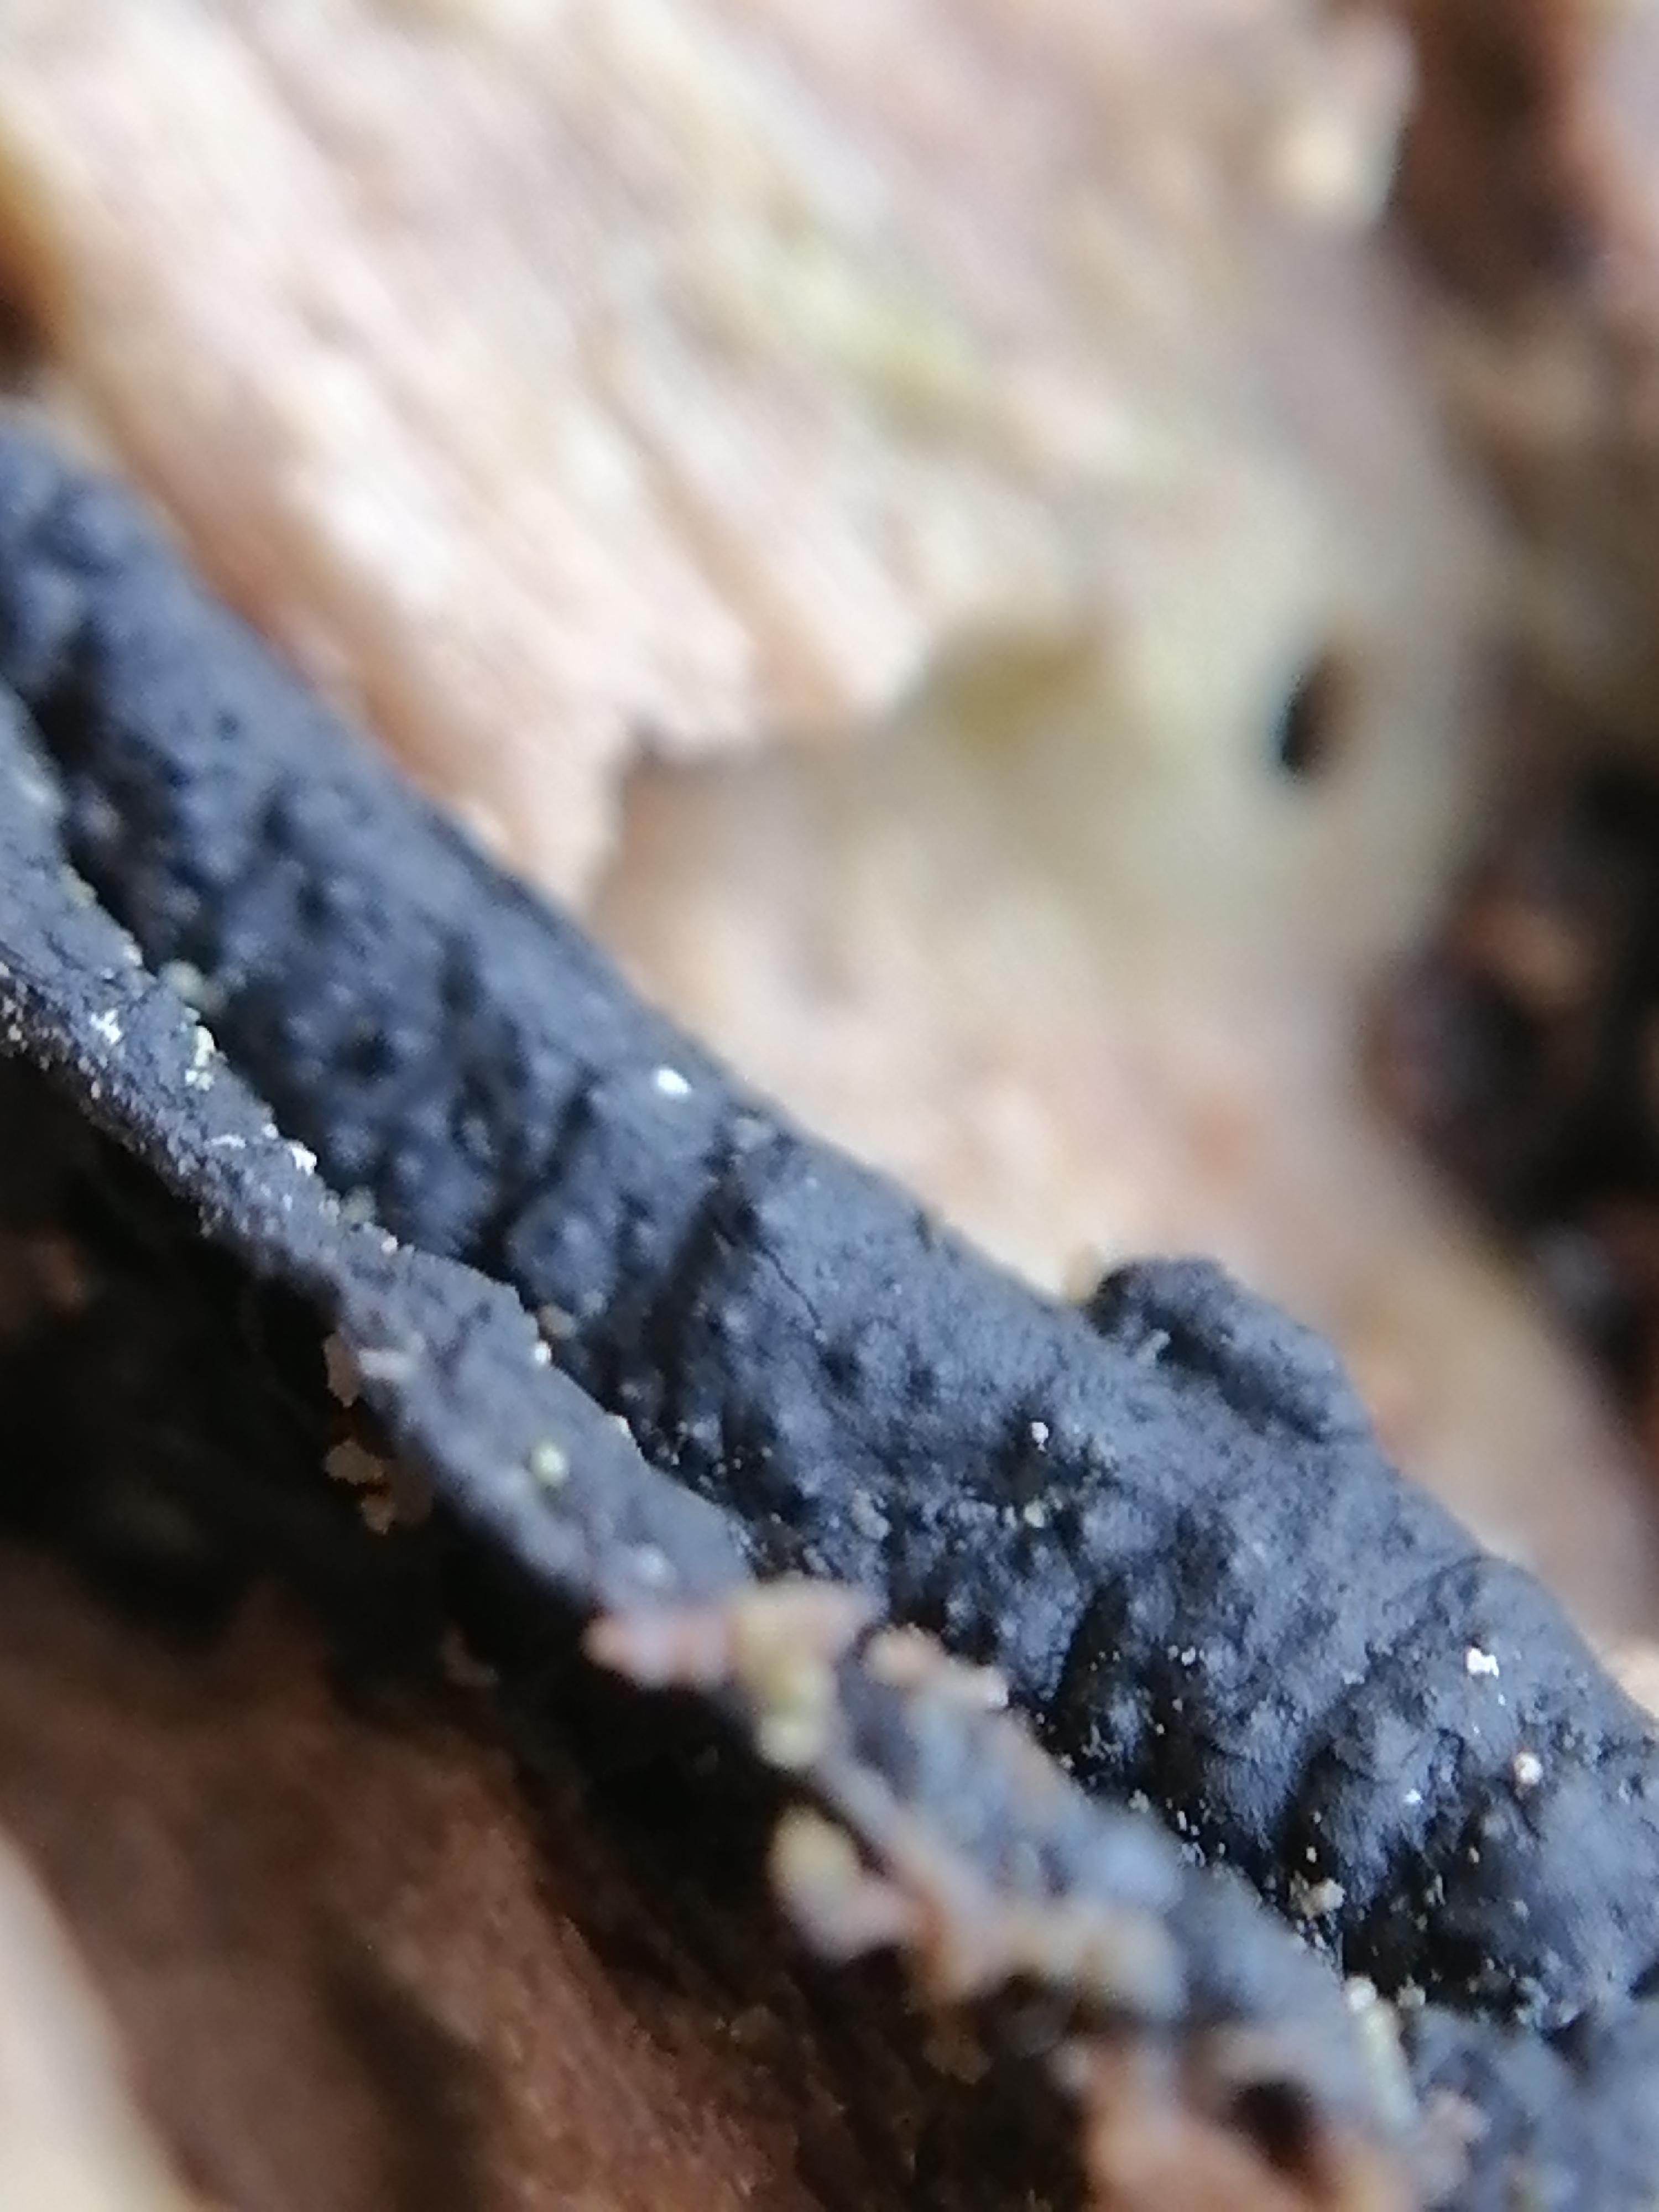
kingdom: Fungi
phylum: Ascomycota
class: Sordariomycetes
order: Xylariales
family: Xylariaceae
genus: Nemania
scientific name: Nemania
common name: kuldyne
